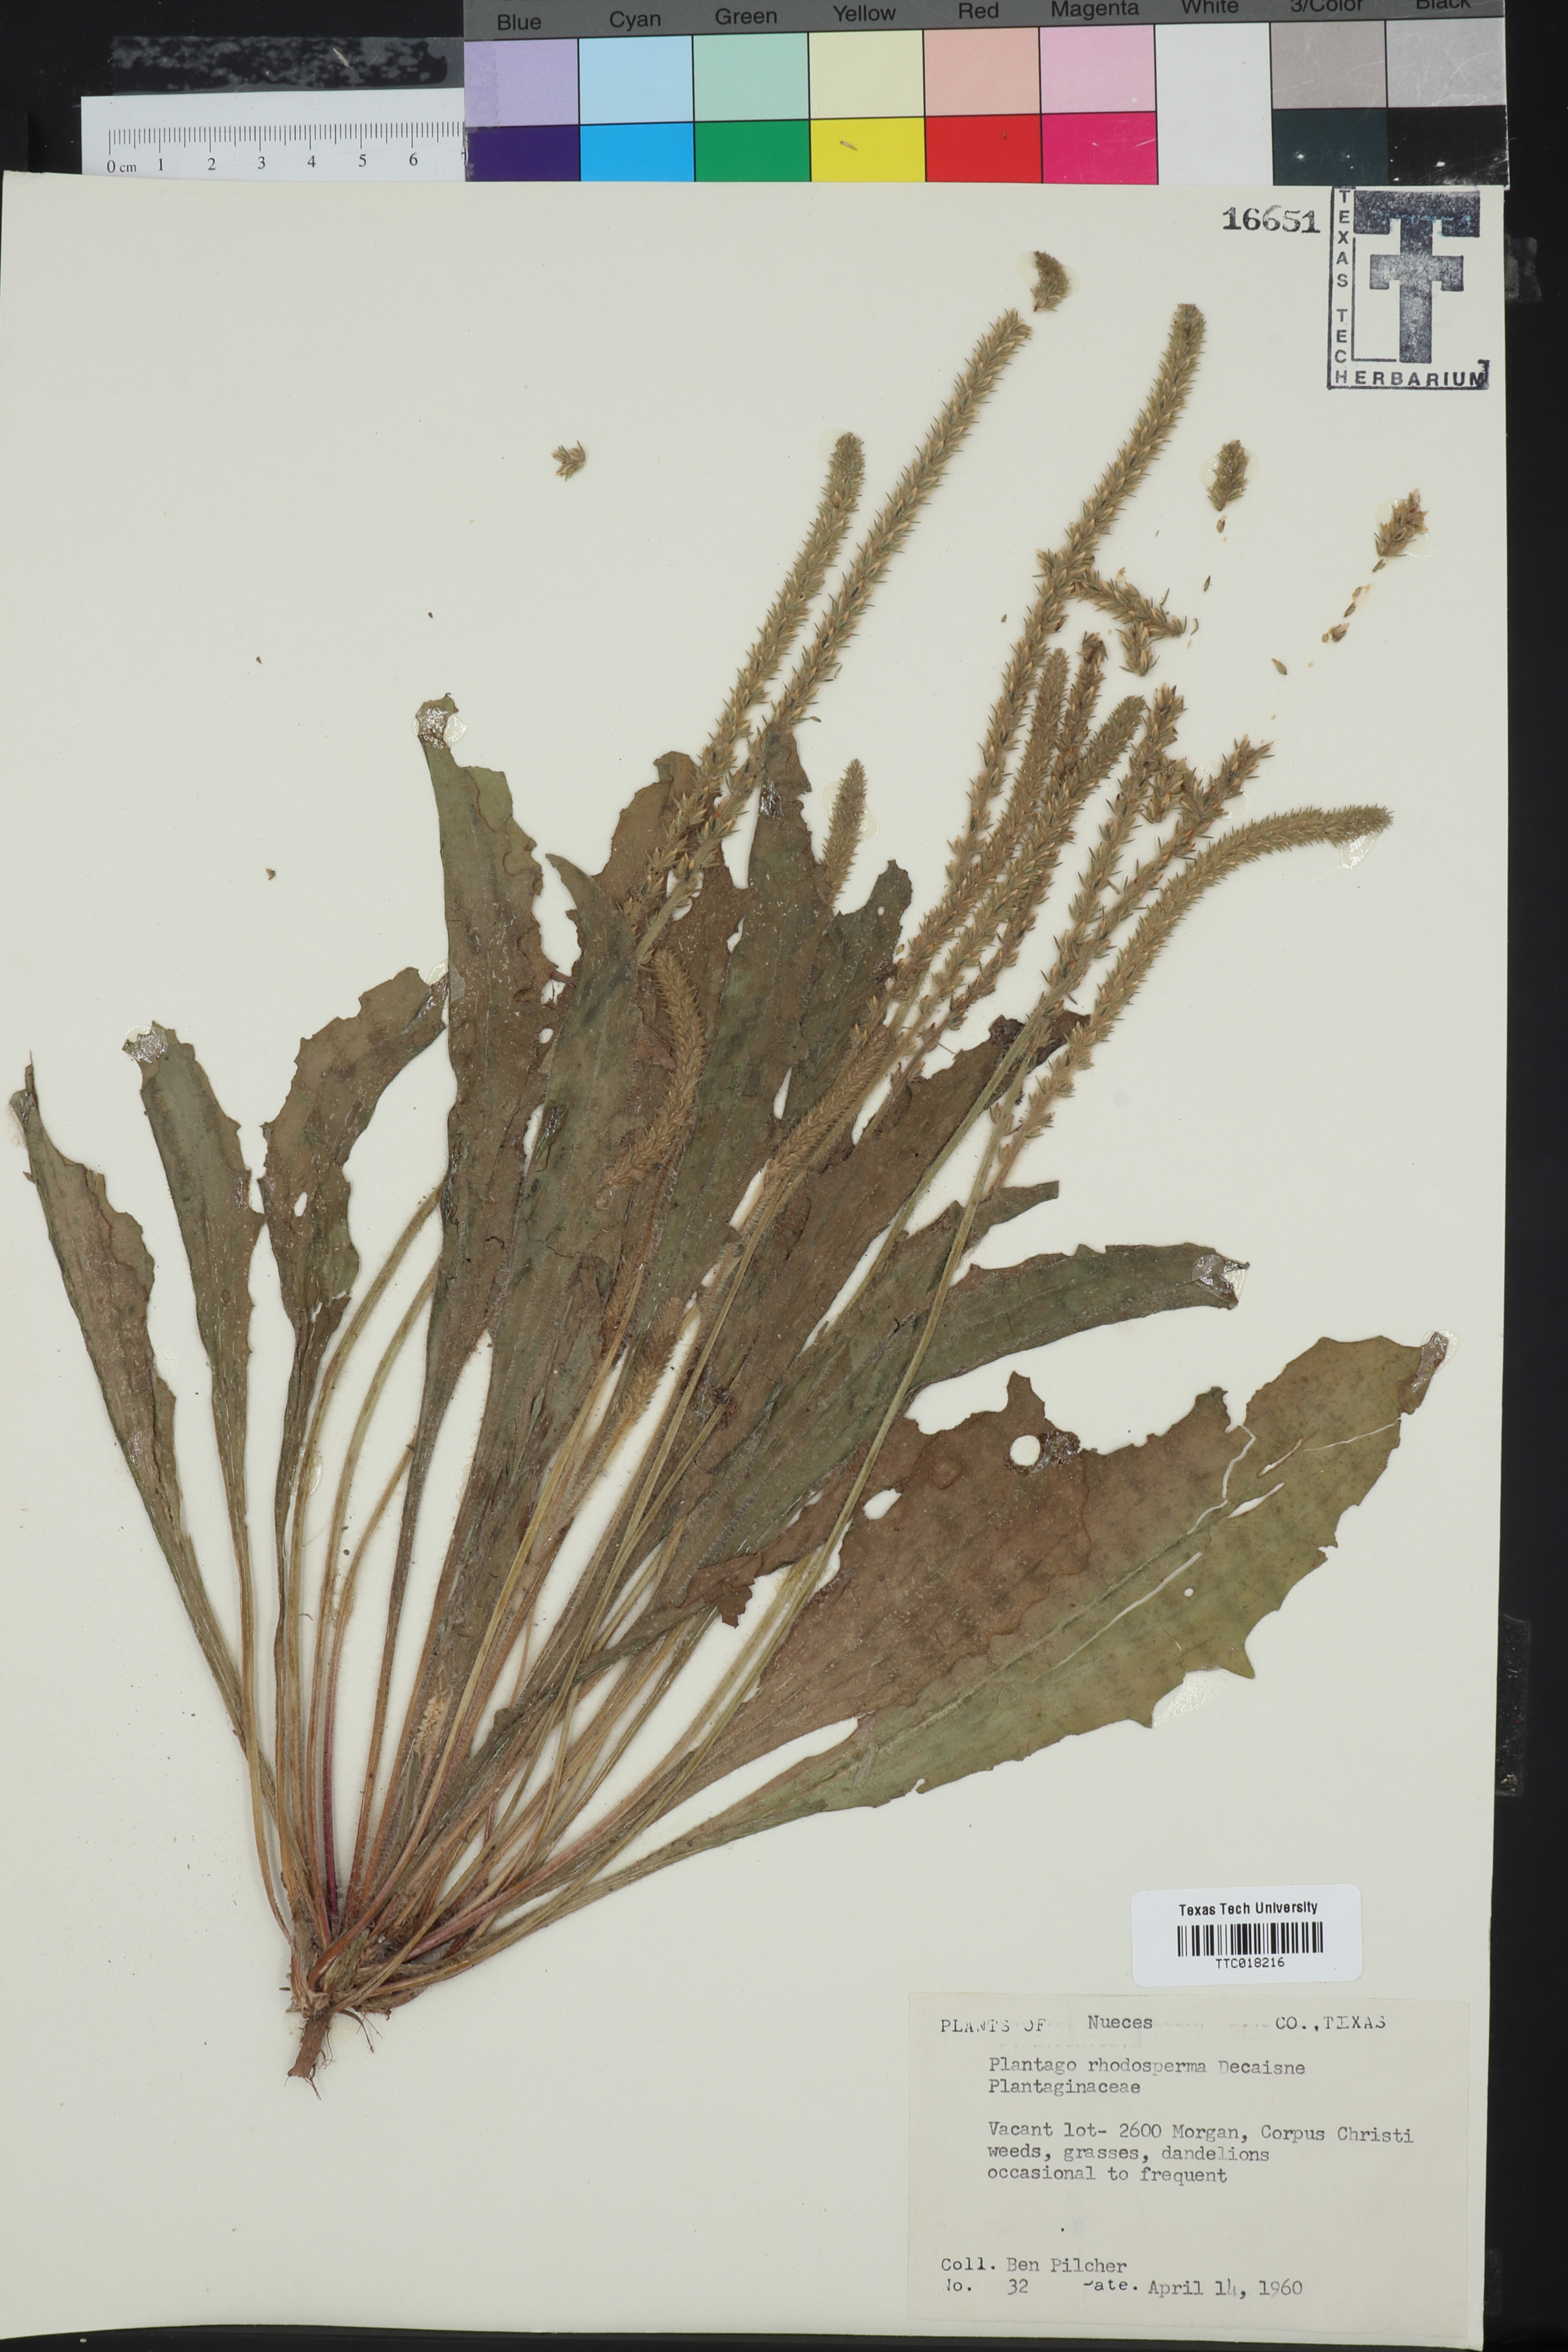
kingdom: Plantae
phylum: Tracheophyta
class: Magnoliopsida
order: Lamiales
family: Plantaginaceae
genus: Plantago
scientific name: Plantago rhodosperma
